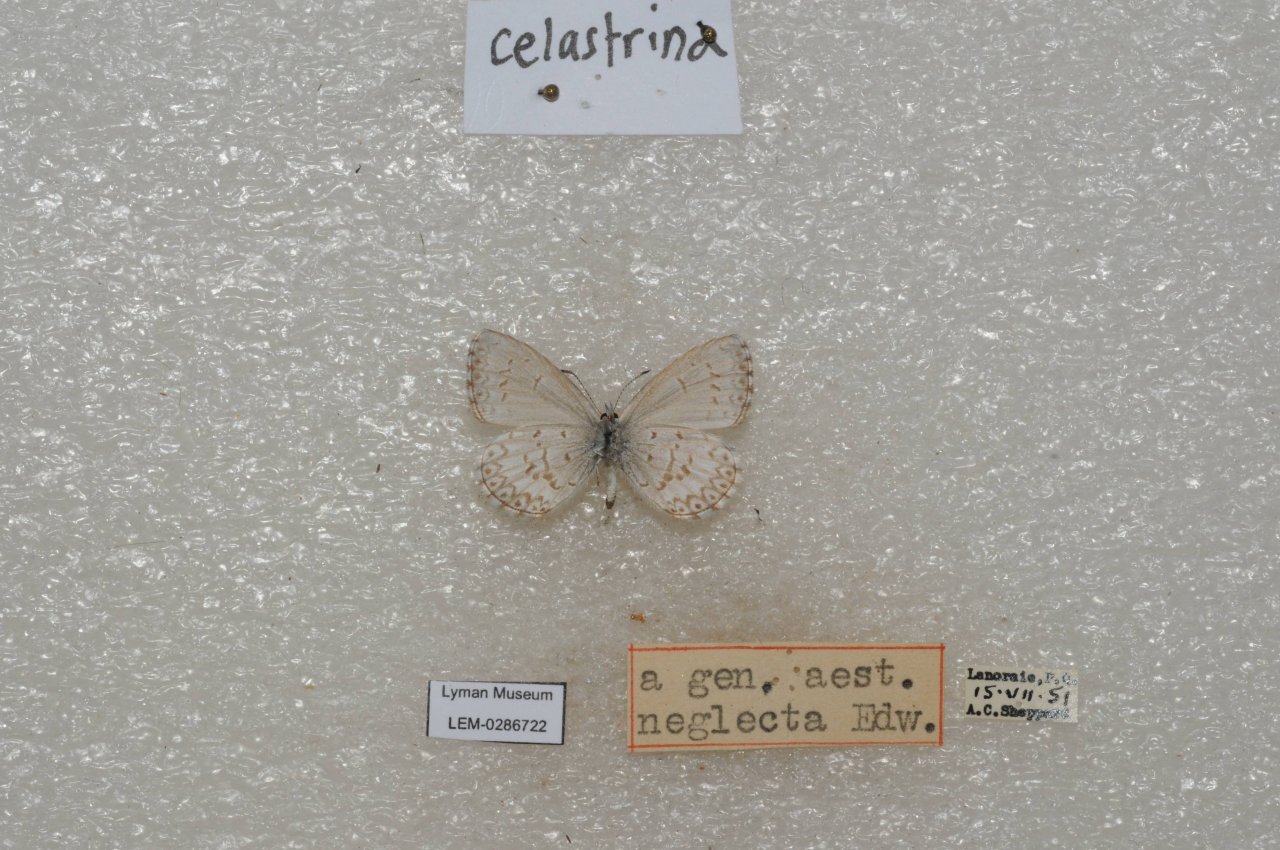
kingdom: Animalia
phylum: Arthropoda
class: Insecta
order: Lepidoptera
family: Lycaenidae
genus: Celastrina
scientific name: Celastrina lucia
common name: Northern Spring Azure
